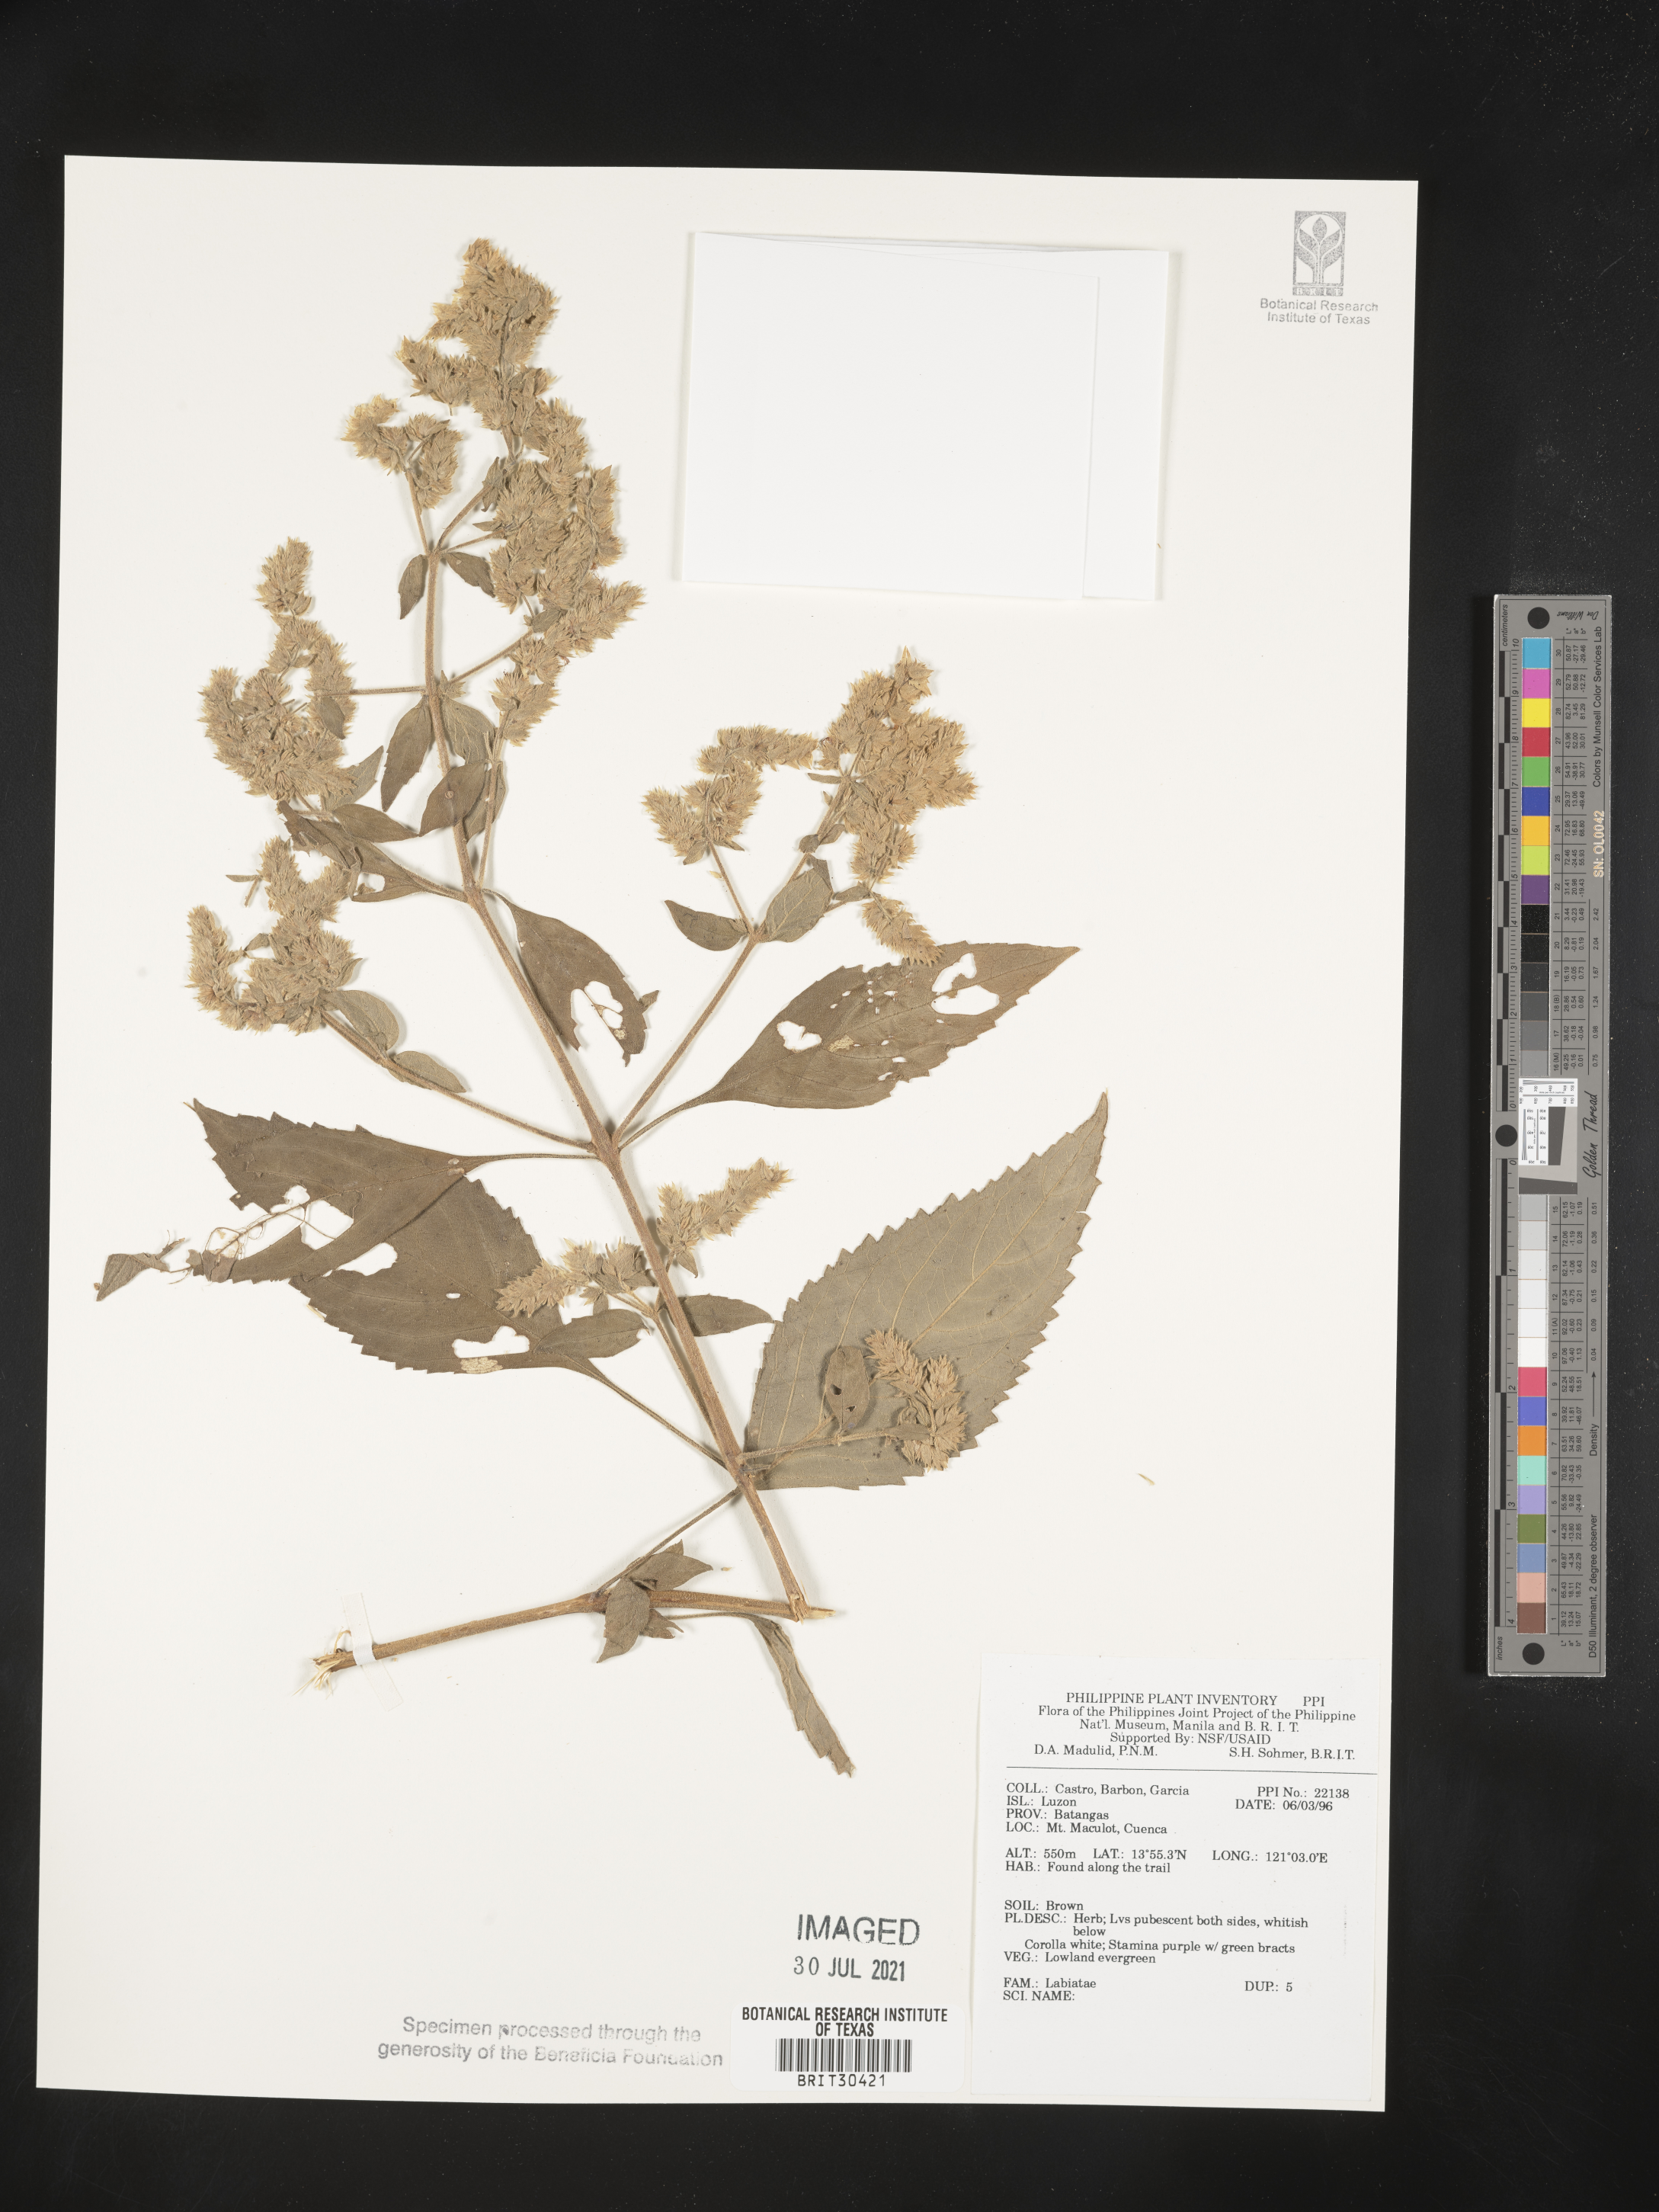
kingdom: Plantae
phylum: Tracheophyta
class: Magnoliopsida
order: Lamiales
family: Lamiaceae
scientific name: Lamiaceae
